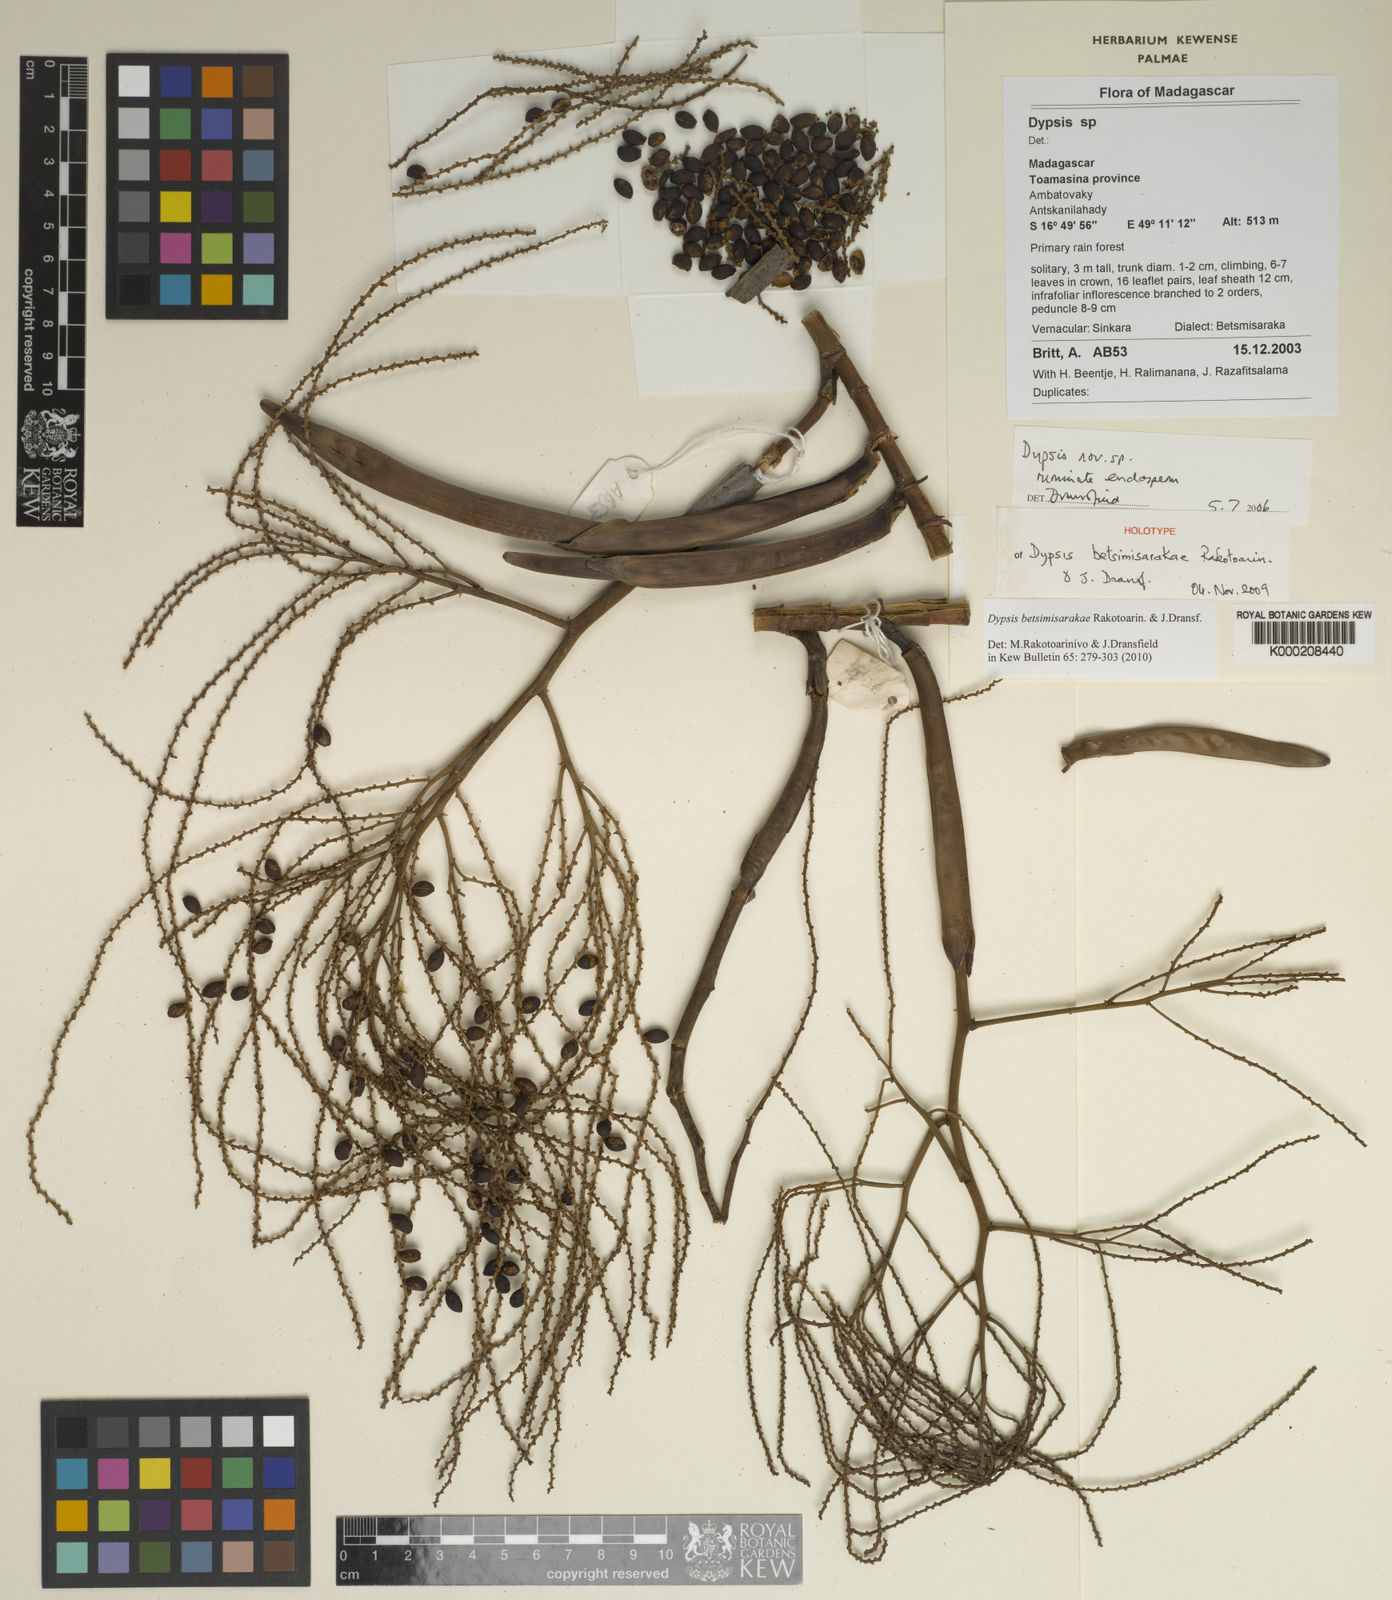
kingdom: Plantae
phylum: Tracheophyta
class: Liliopsida
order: Arecales
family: Arecaceae
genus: Dypsis
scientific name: Dypsis betsimisarakae
